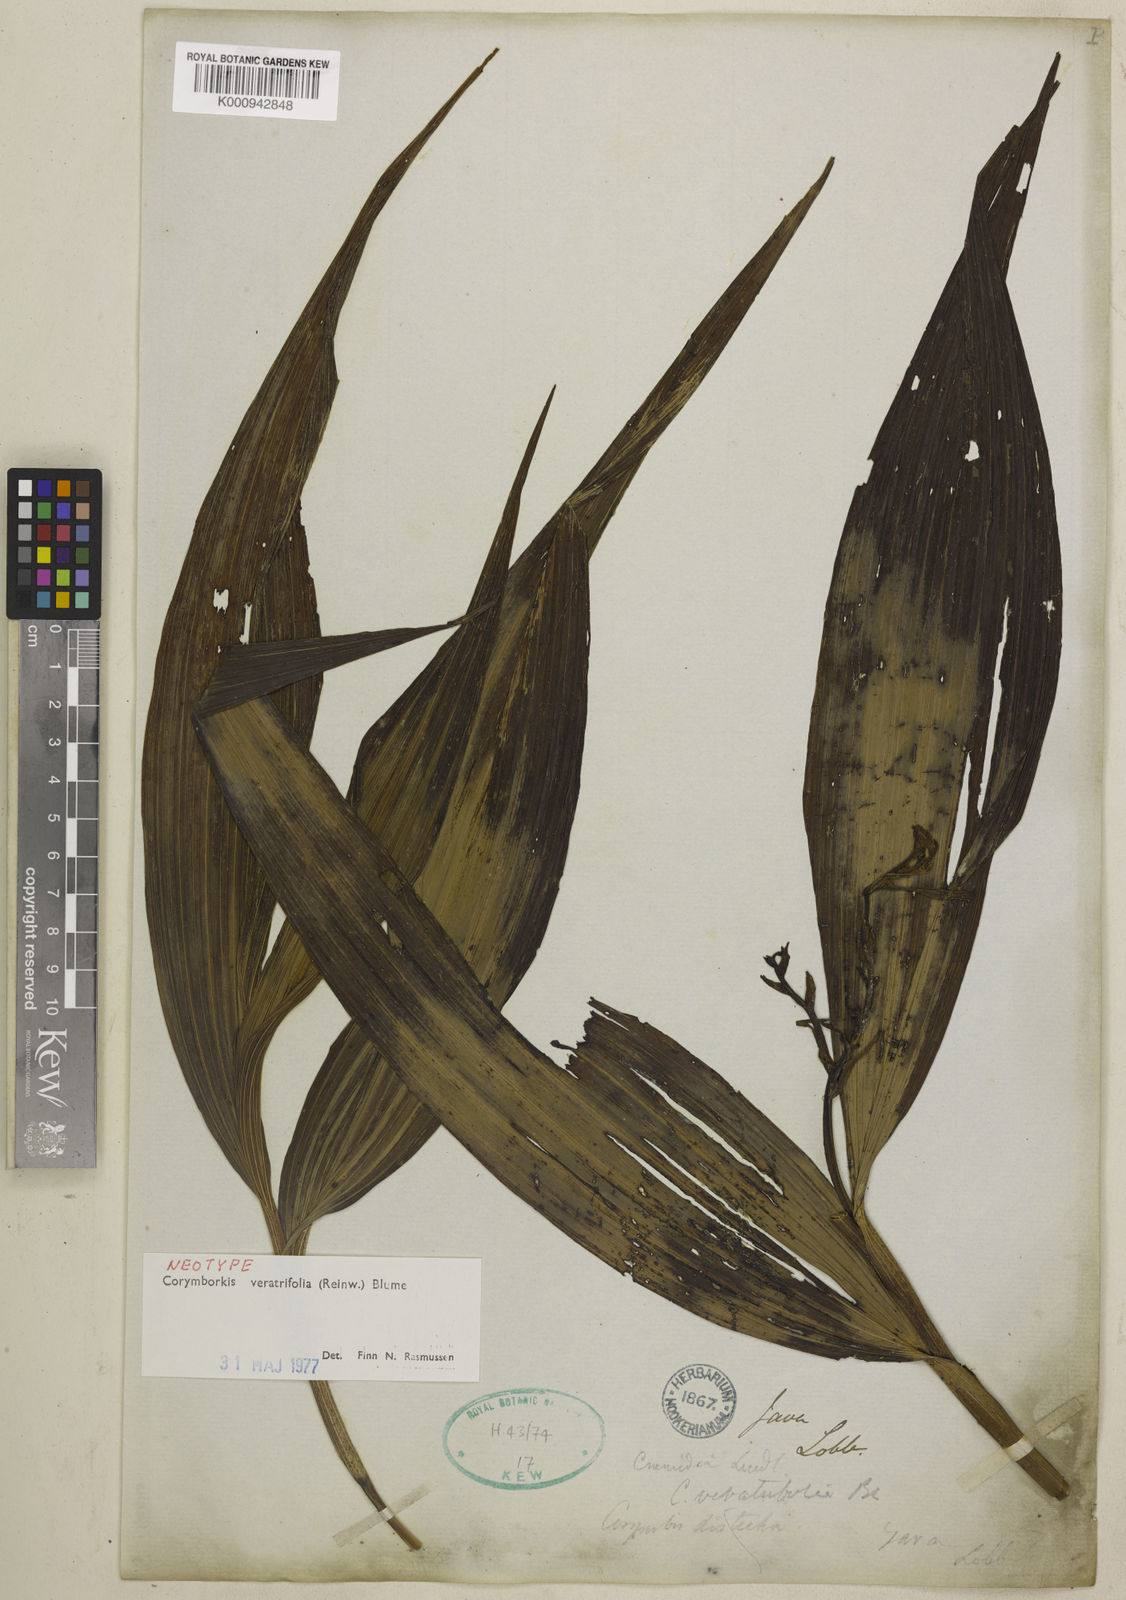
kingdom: Plantae
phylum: Tracheophyta
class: Liliopsida
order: Asparagales
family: Orchidaceae
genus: Corymborkis
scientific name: Corymborkis veratrifolia
